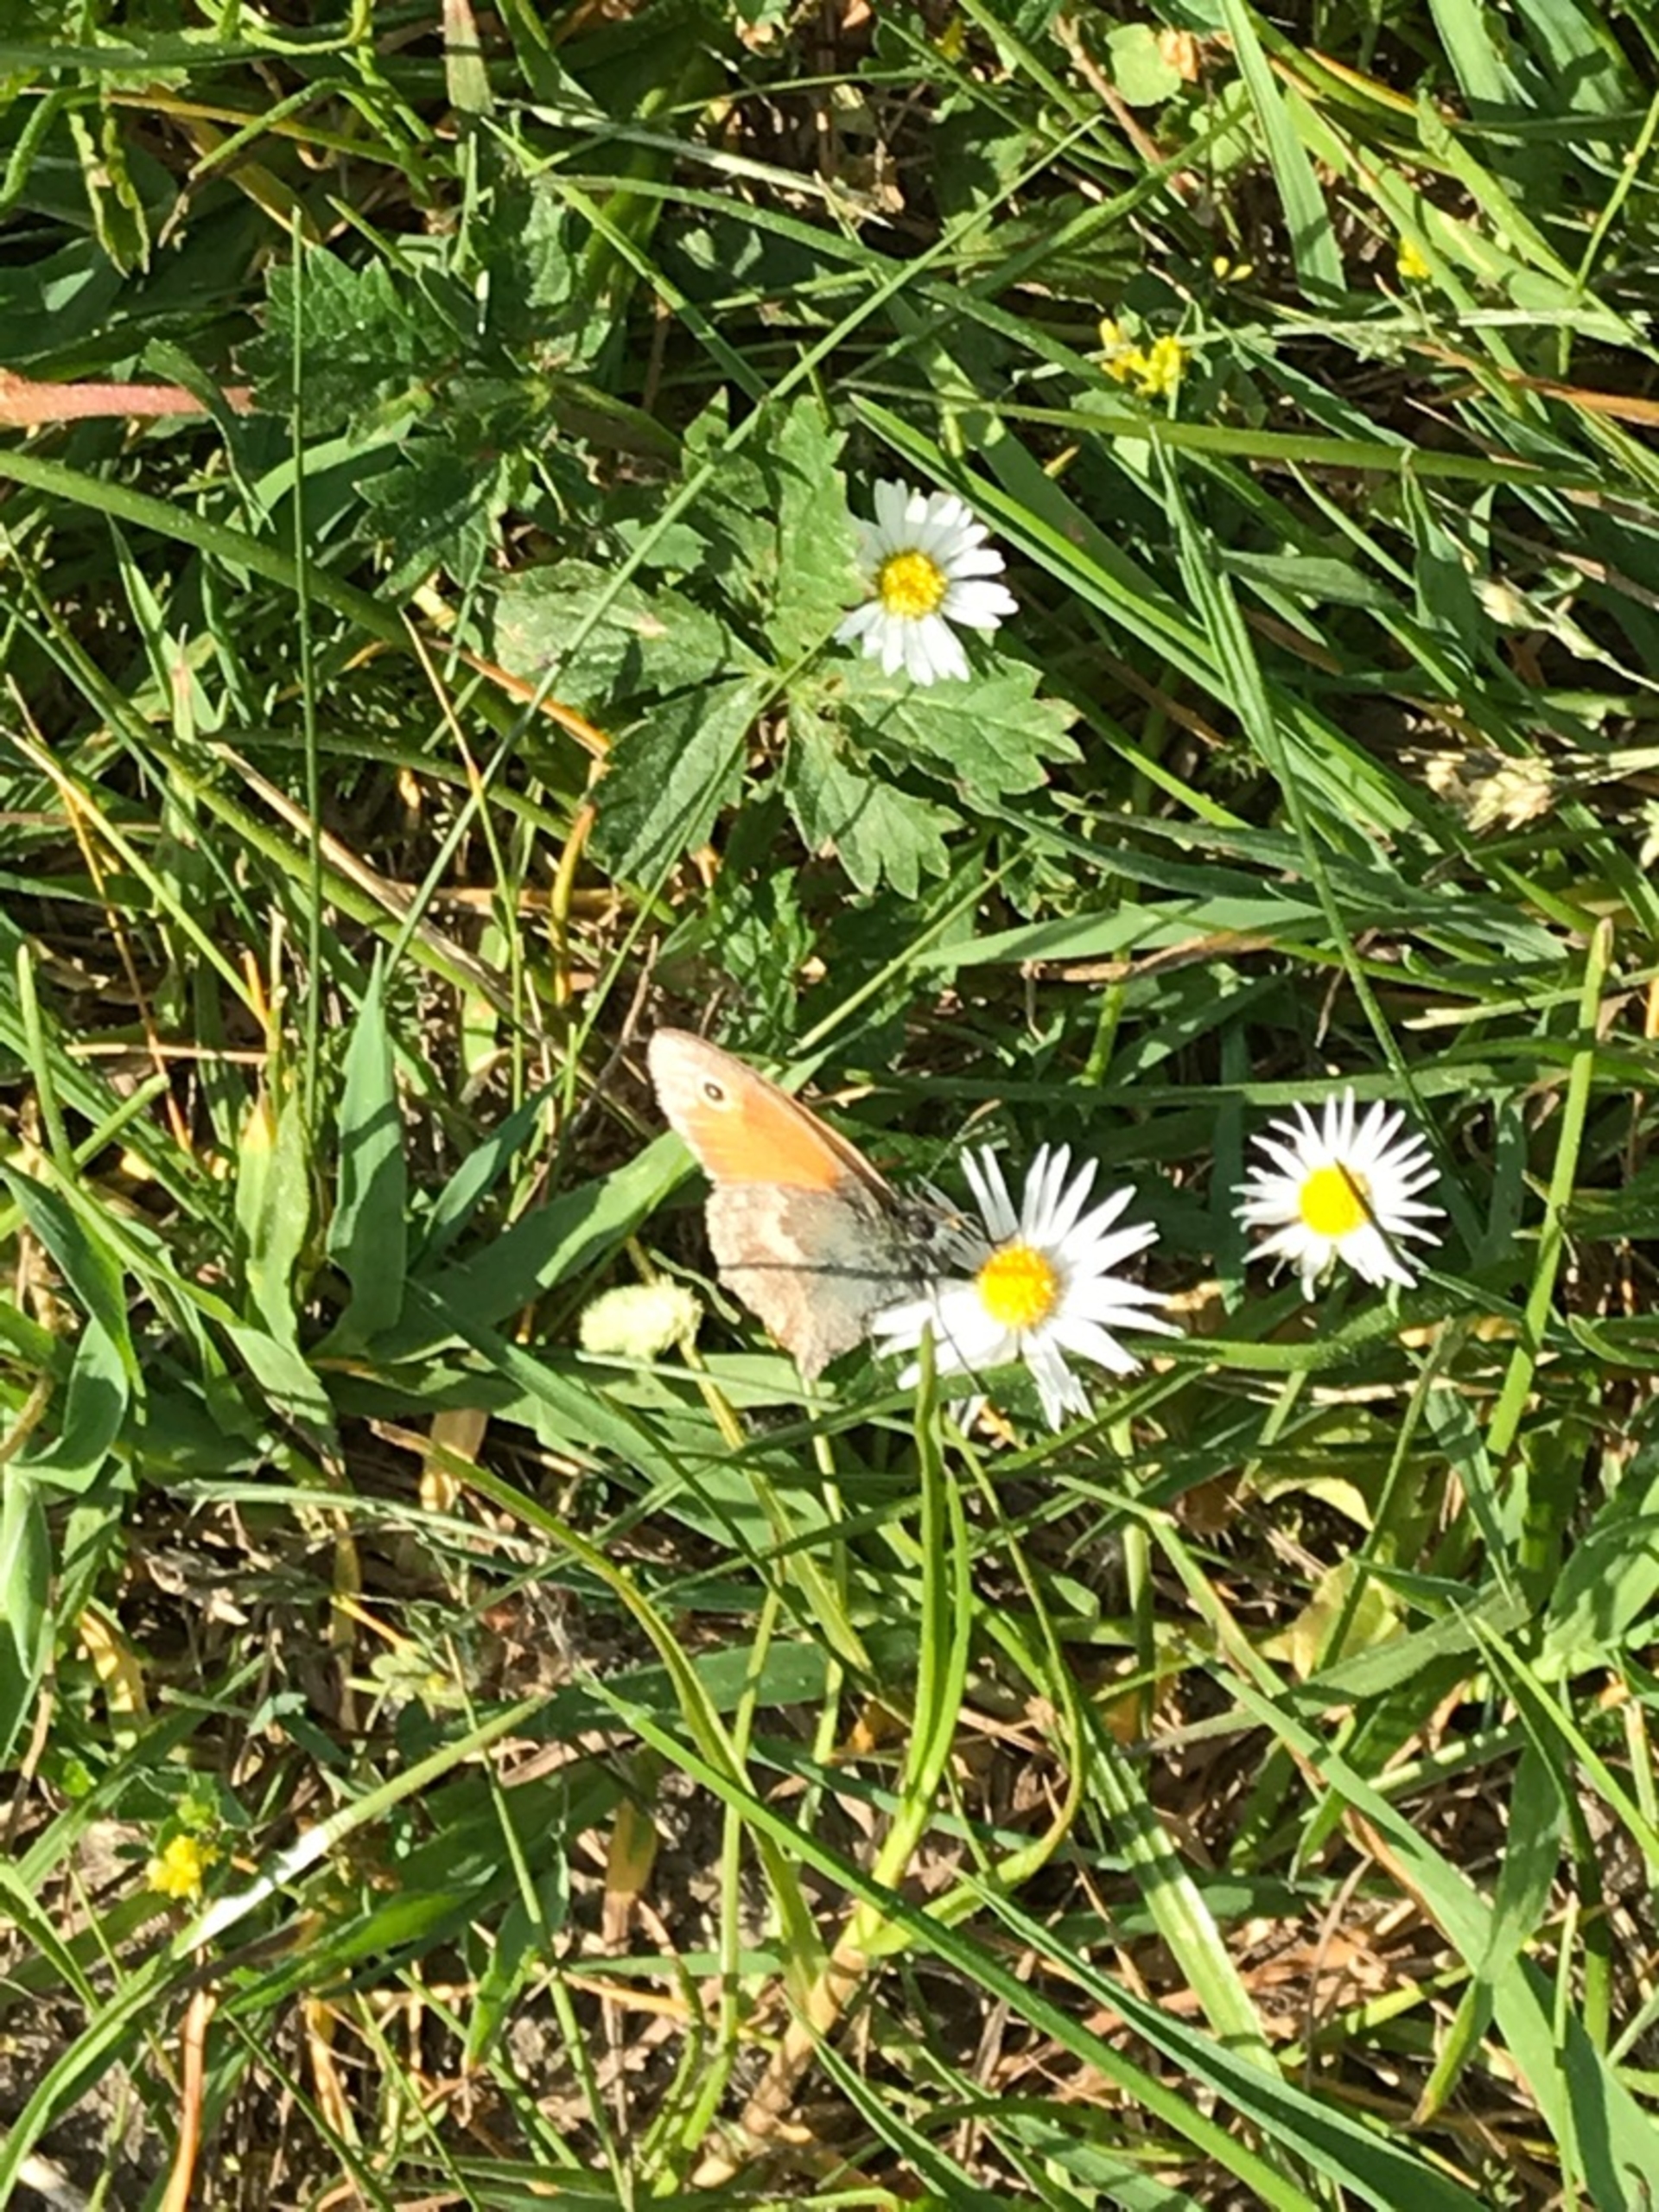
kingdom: Animalia
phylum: Arthropoda
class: Insecta
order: Lepidoptera
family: Nymphalidae
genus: Coenonympha
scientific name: Coenonympha pamphilus
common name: Okkergul randøje
